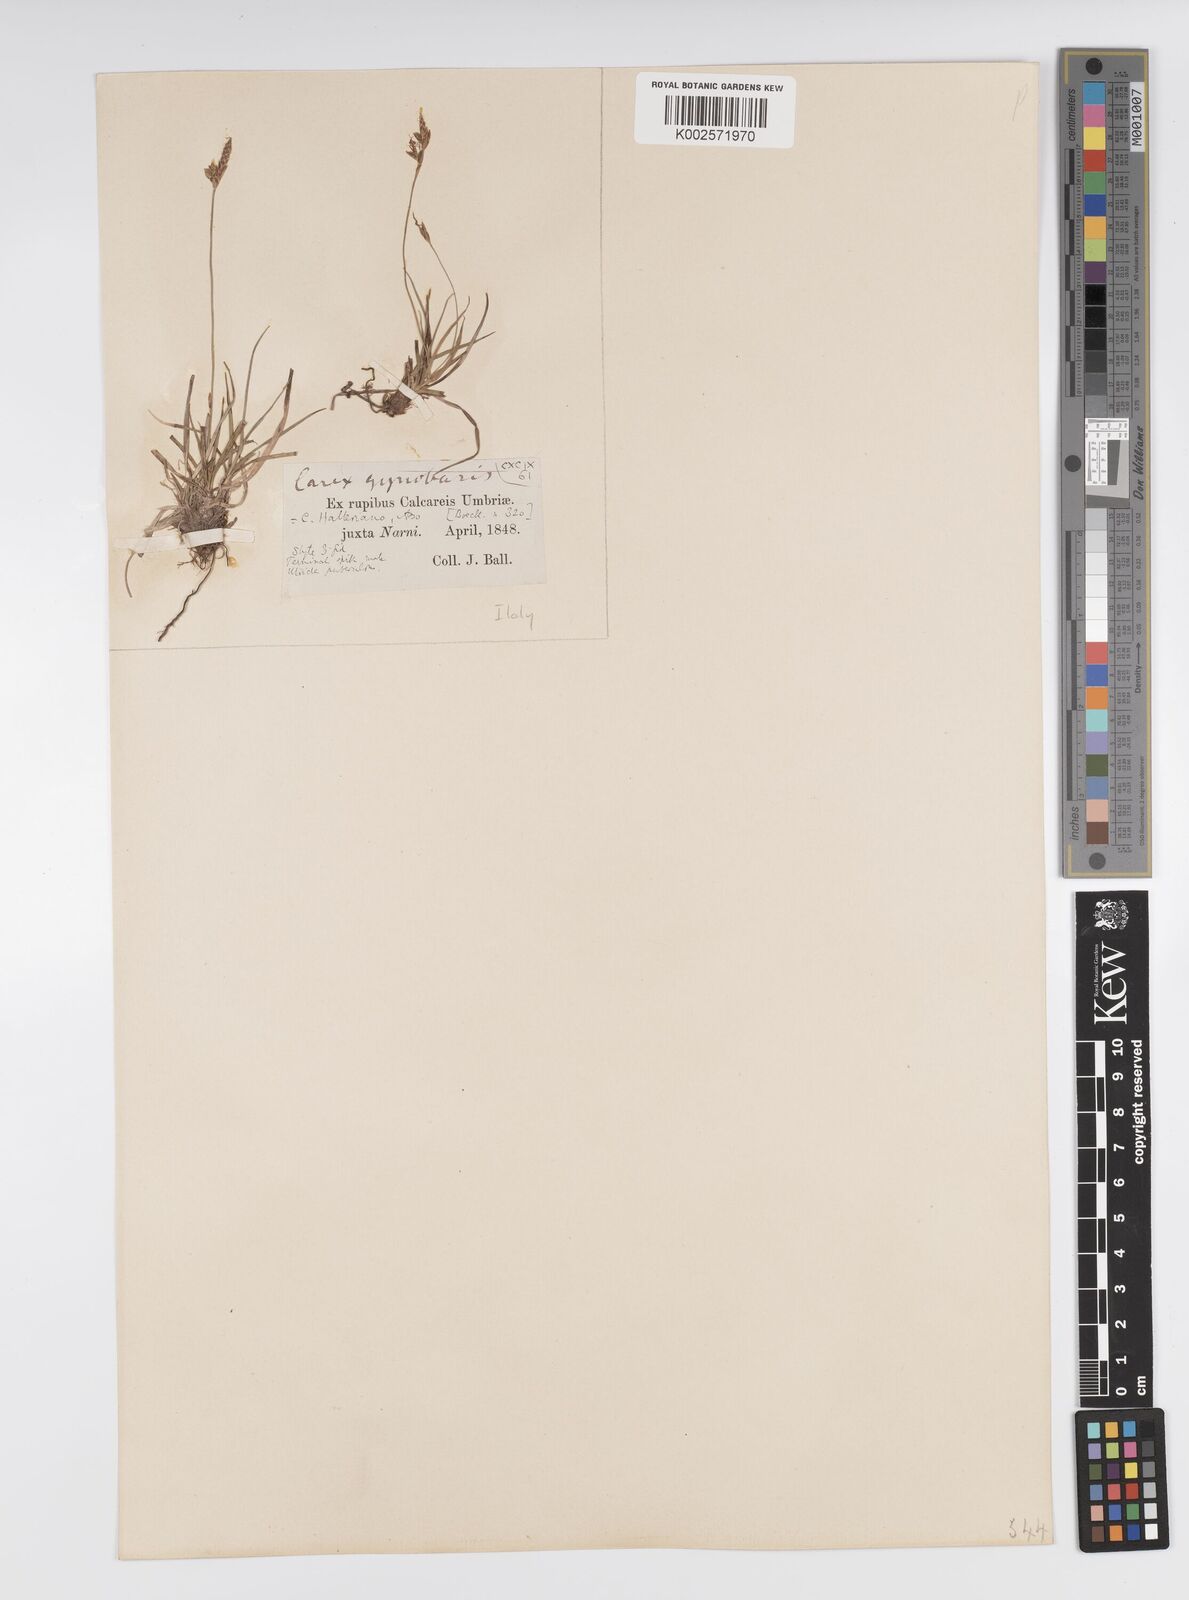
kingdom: Plantae
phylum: Tracheophyta
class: Liliopsida
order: Poales
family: Cyperaceae
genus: Carex
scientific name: Carex halleriana
